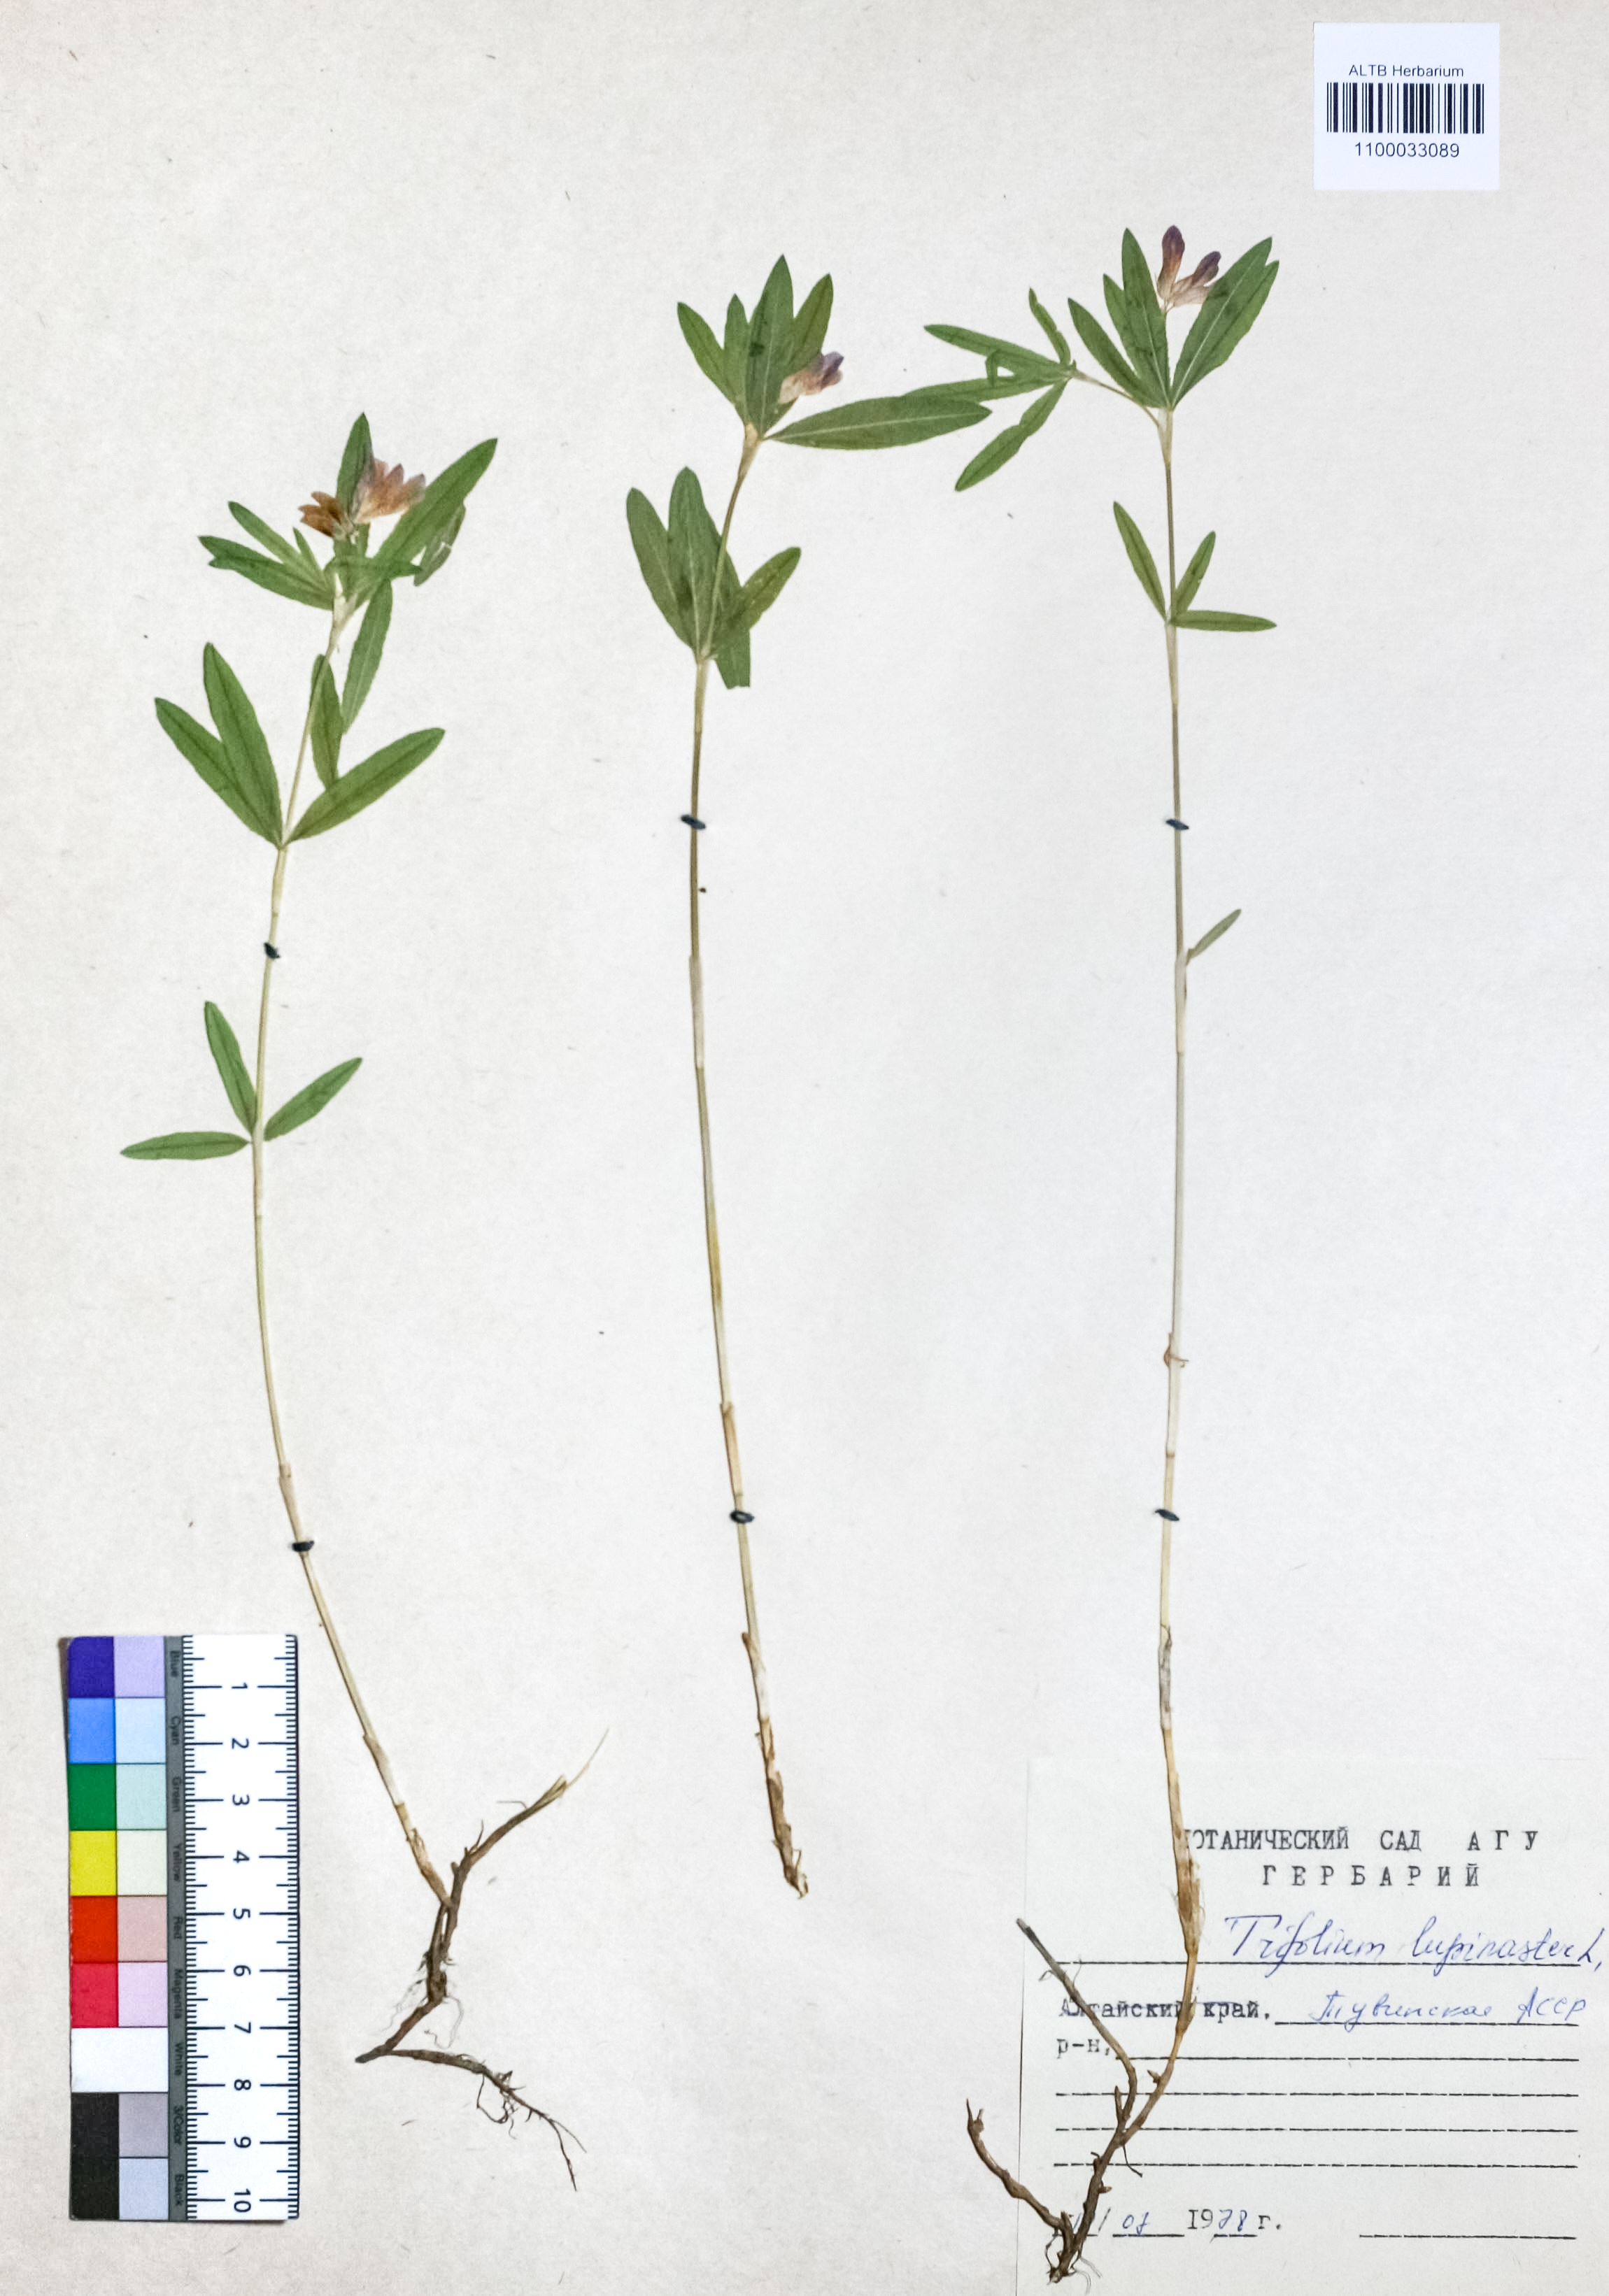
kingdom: Plantae
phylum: Tracheophyta
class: Magnoliopsida
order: Fabales
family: Fabaceae
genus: Trifolium
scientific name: Trifolium lupinaster
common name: Lupine clover
